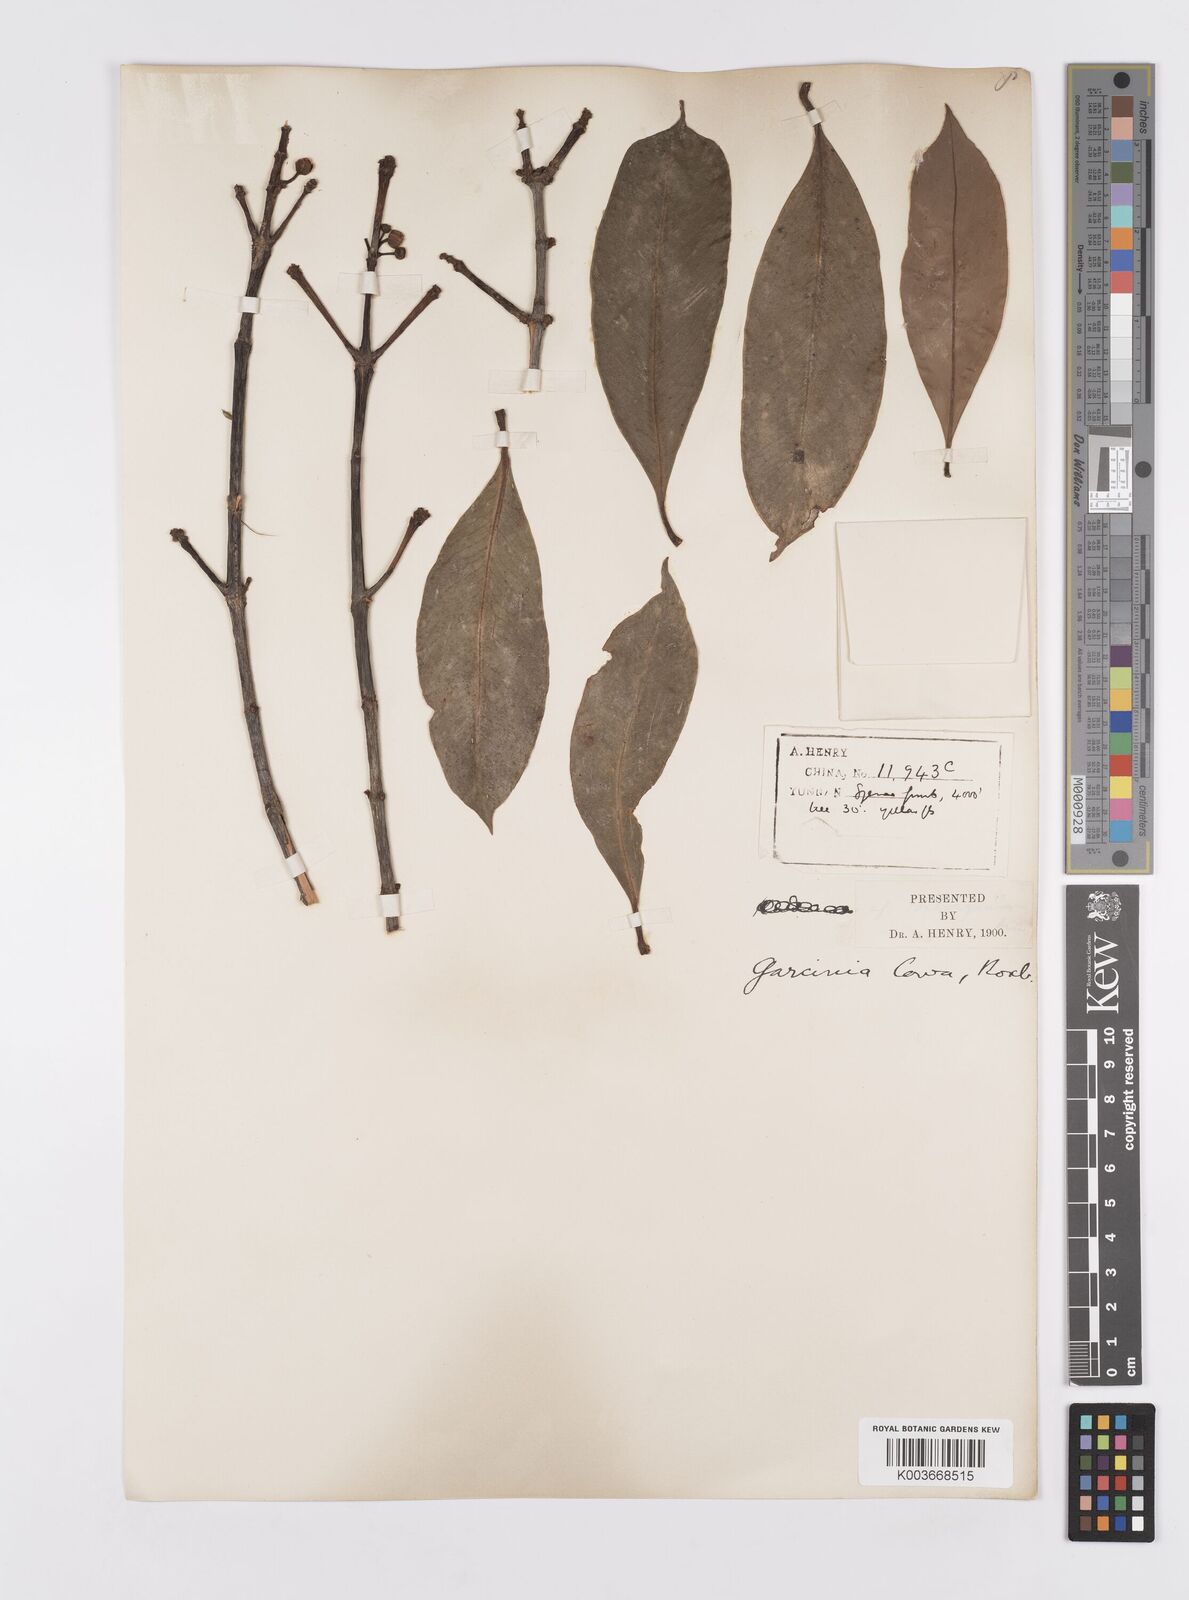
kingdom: Plantae
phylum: Tracheophyta
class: Magnoliopsida
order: Malpighiales
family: Clusiaceae
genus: Garcinia
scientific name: Garcinia cowa
